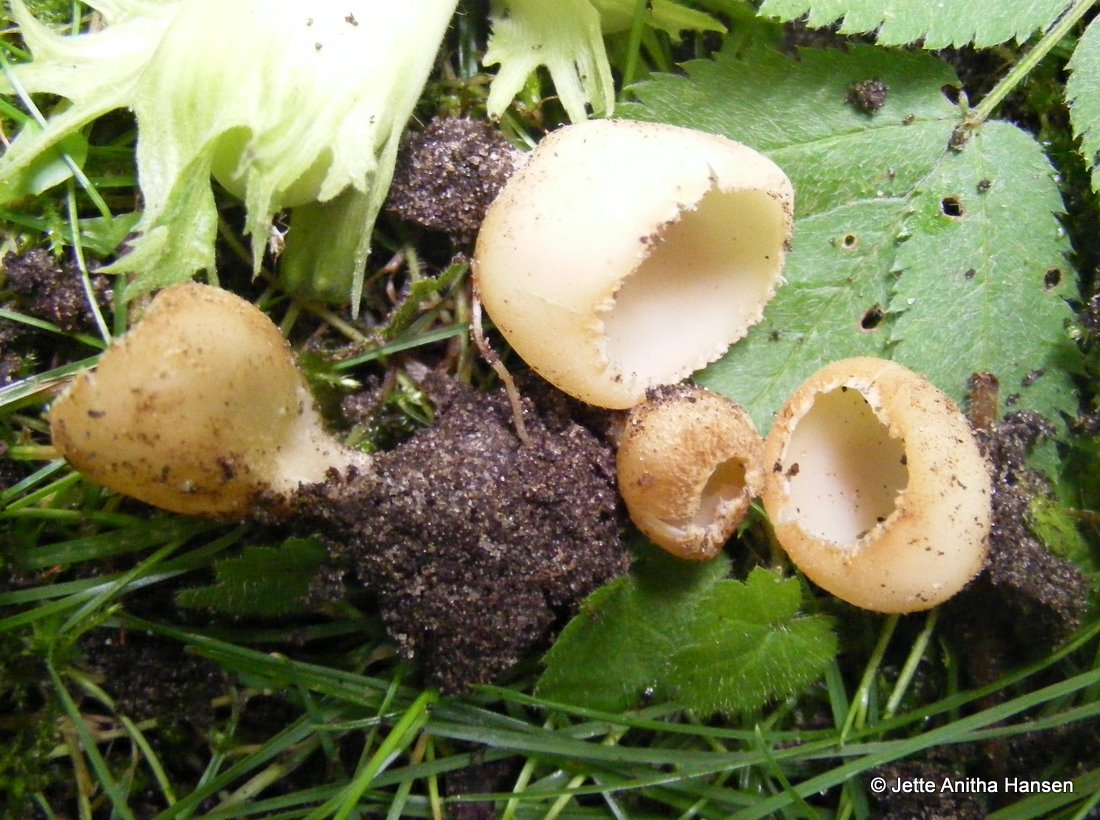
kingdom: Fungi
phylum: Ascomycota
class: Pezizomycetes
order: Pezizales
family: Pyronemataceae
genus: Tarzetta
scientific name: Tarzetta cupularis
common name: gulbrun pokalbæger
